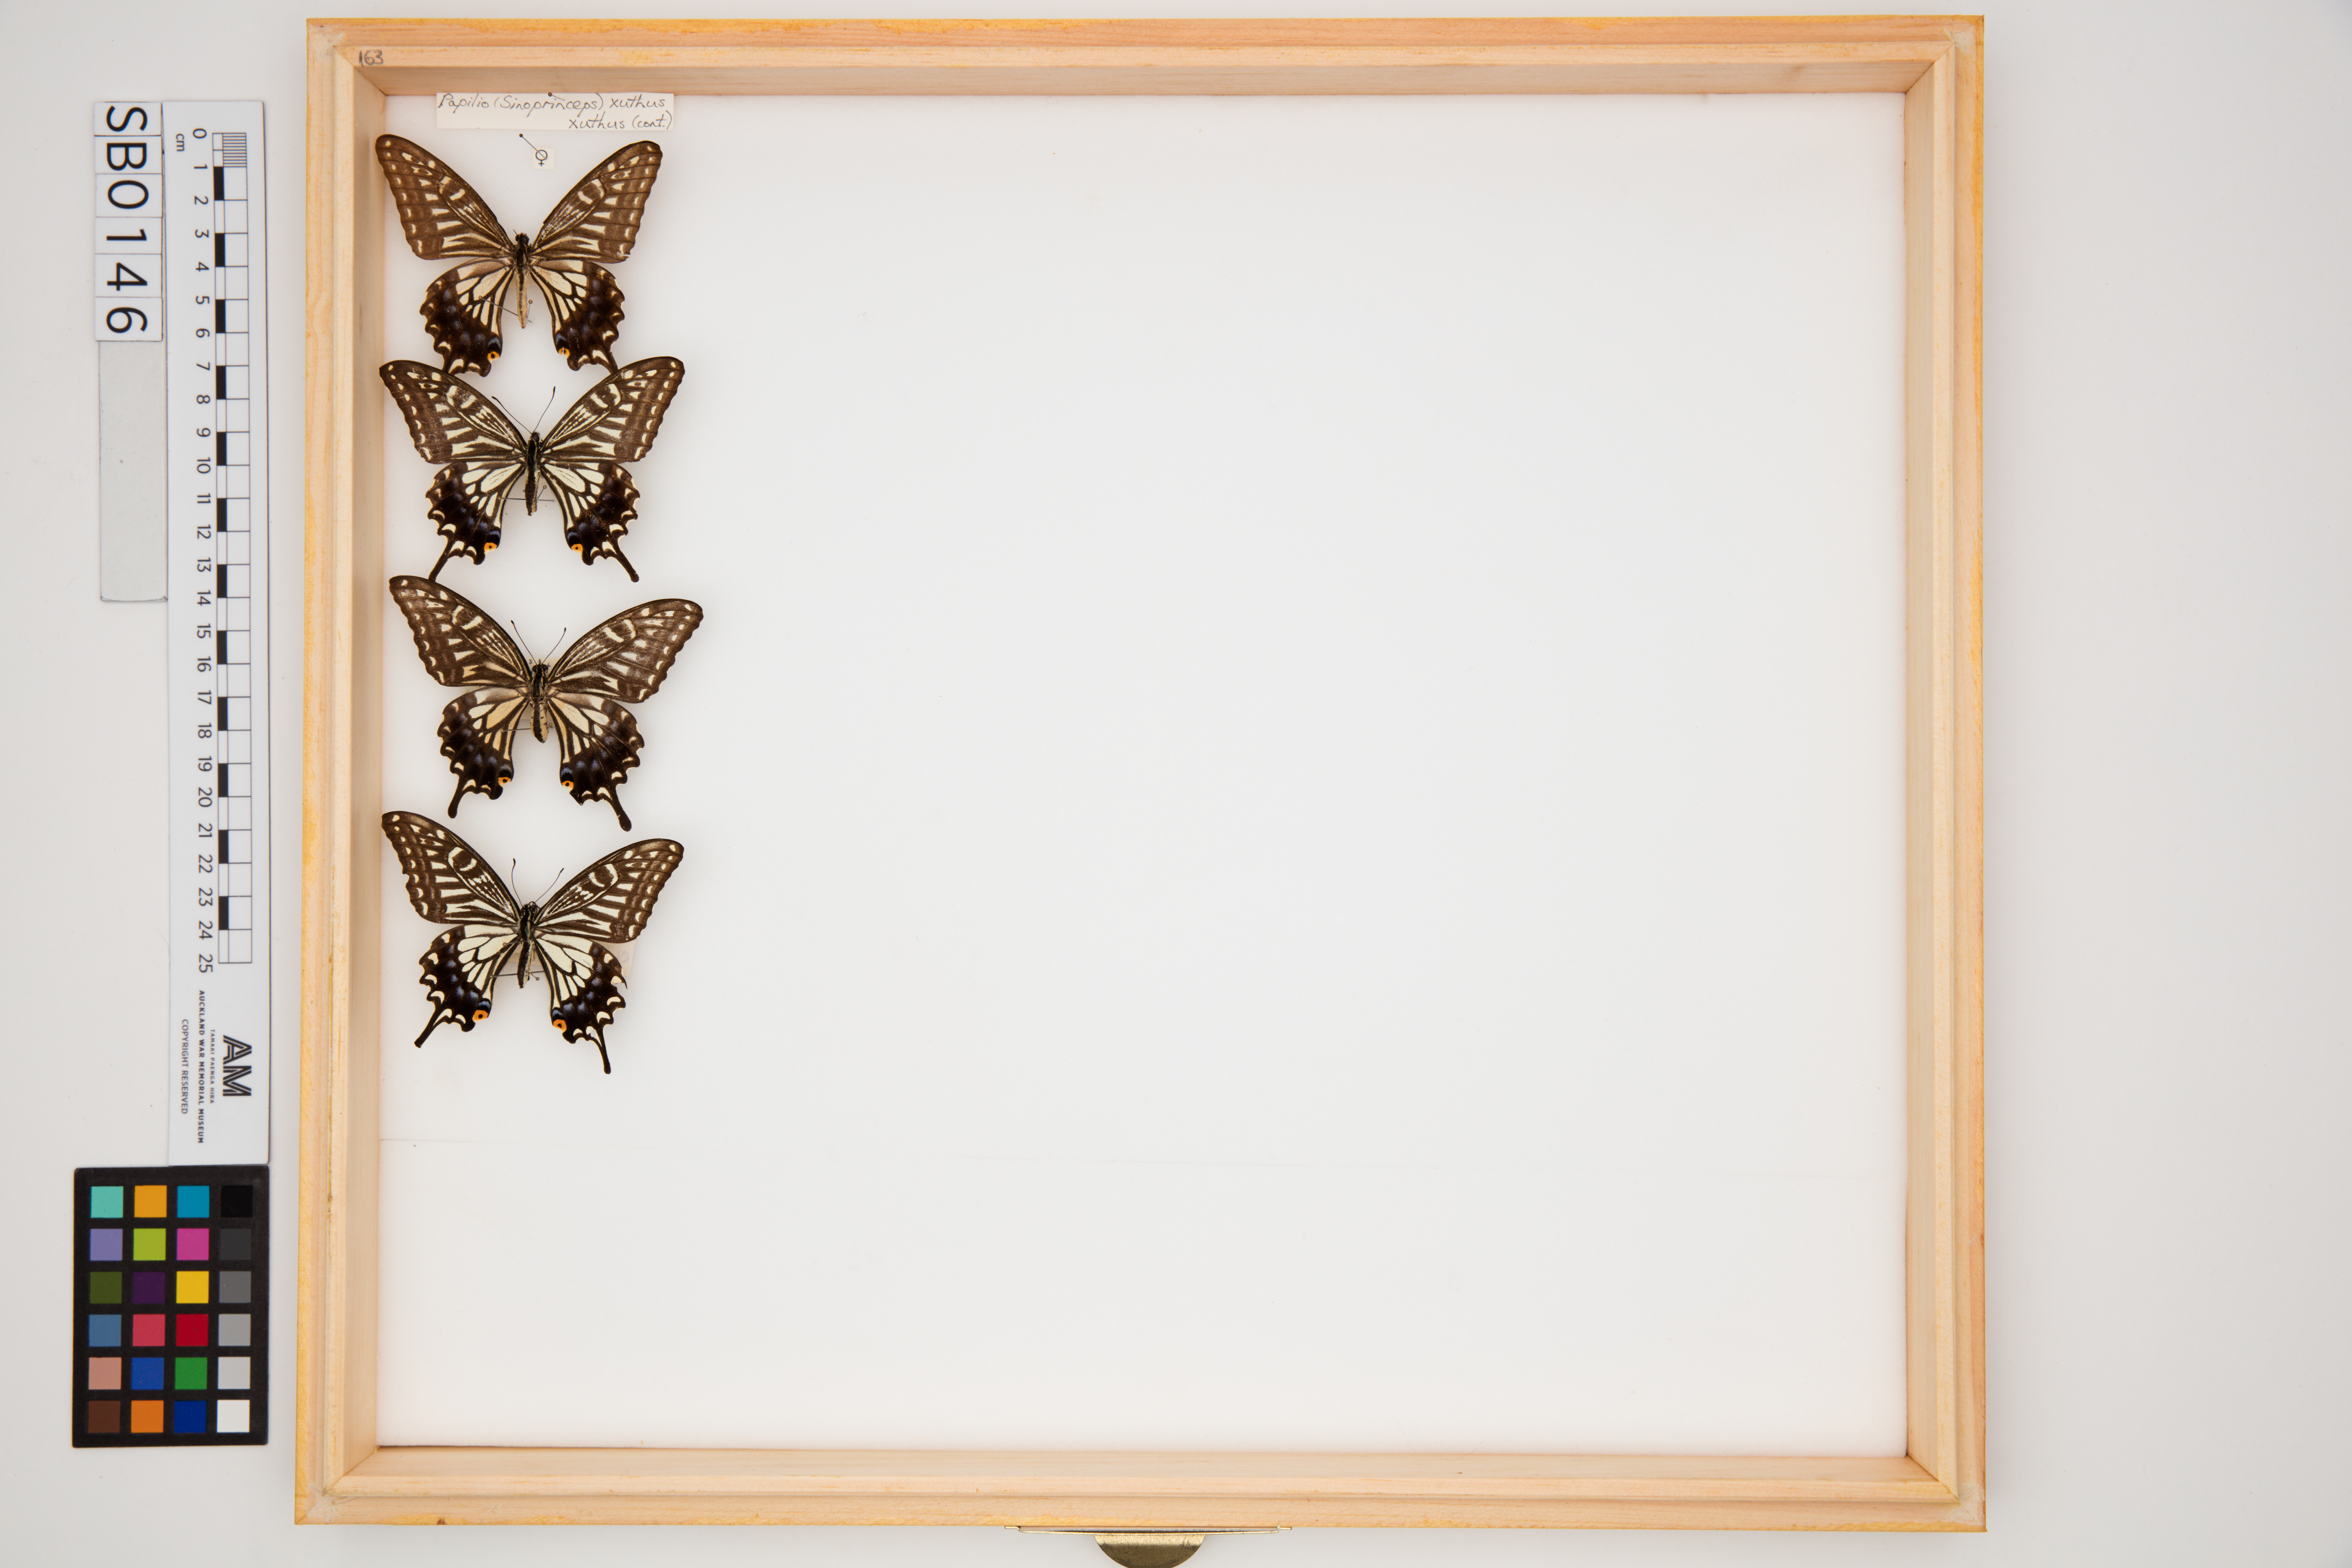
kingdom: Animalia
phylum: Arthropoda
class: Insecta
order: Lepidoptera
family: Papilionidae
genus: Papilio
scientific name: Papilio xuthus
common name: Asian swallowtail
